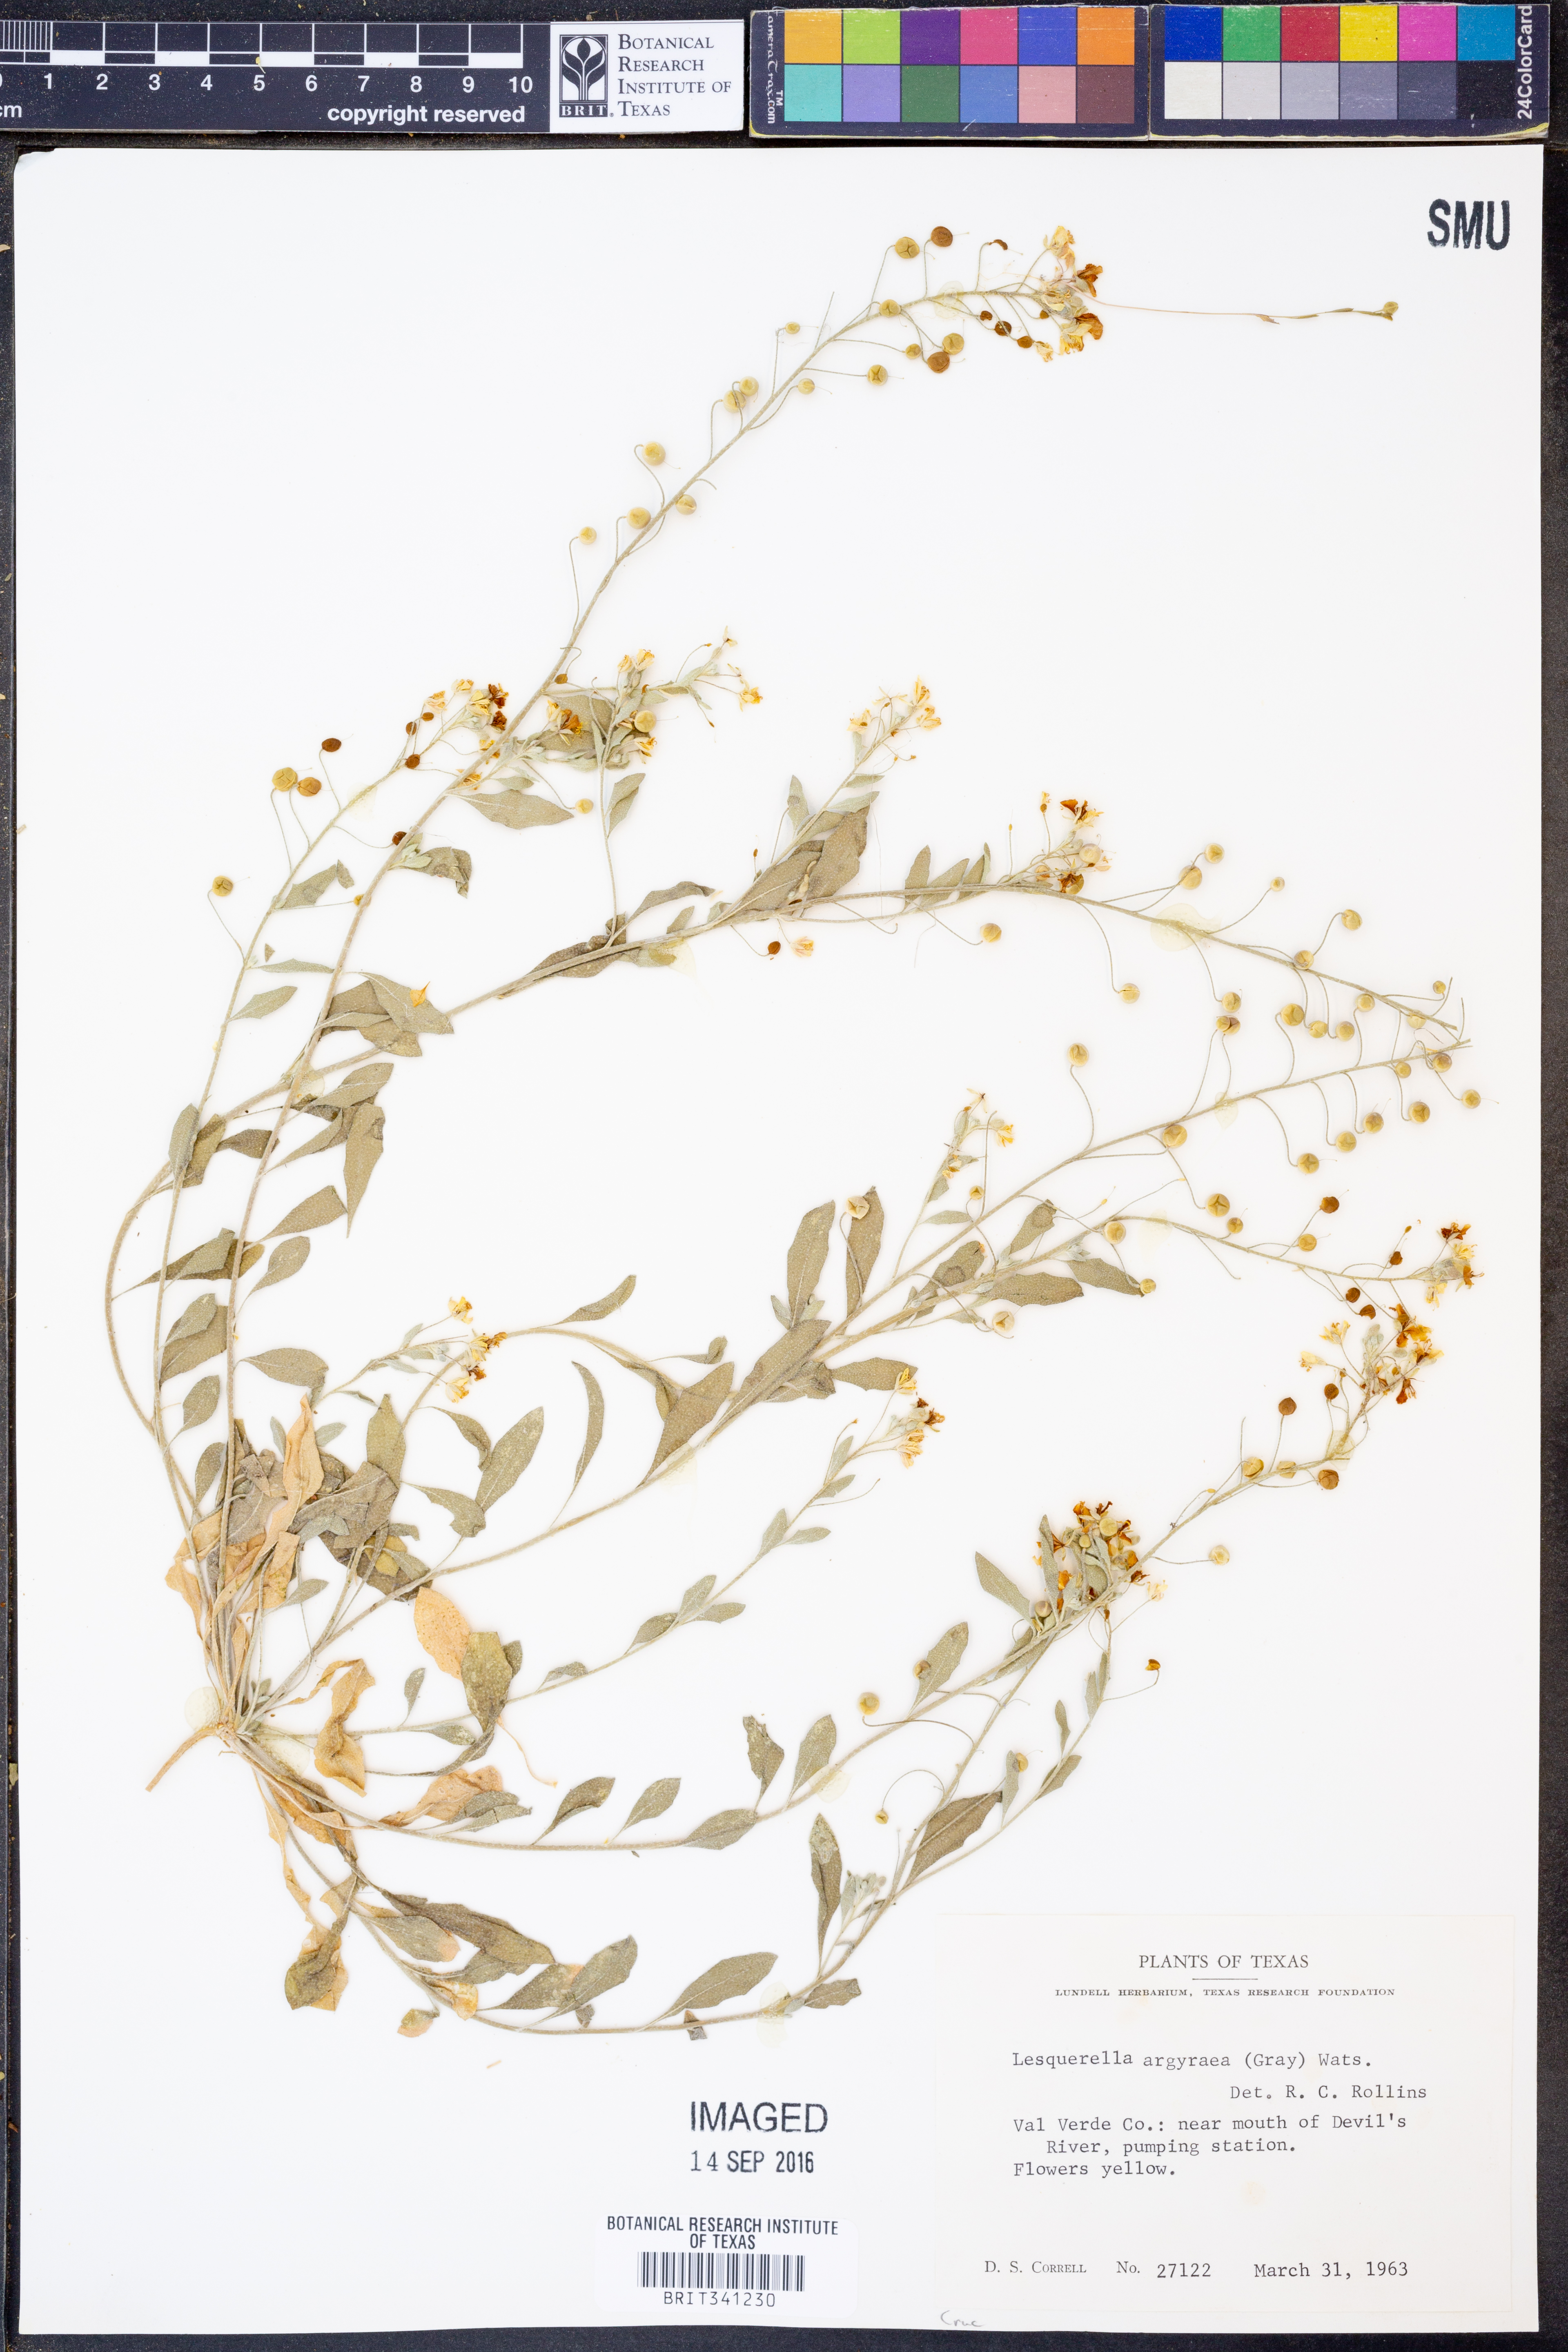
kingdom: Plantae
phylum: Tracheophyta
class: Magnoliopsida
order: Brassicales
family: Brassicaceae
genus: Physaria
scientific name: Physaria argyraea
